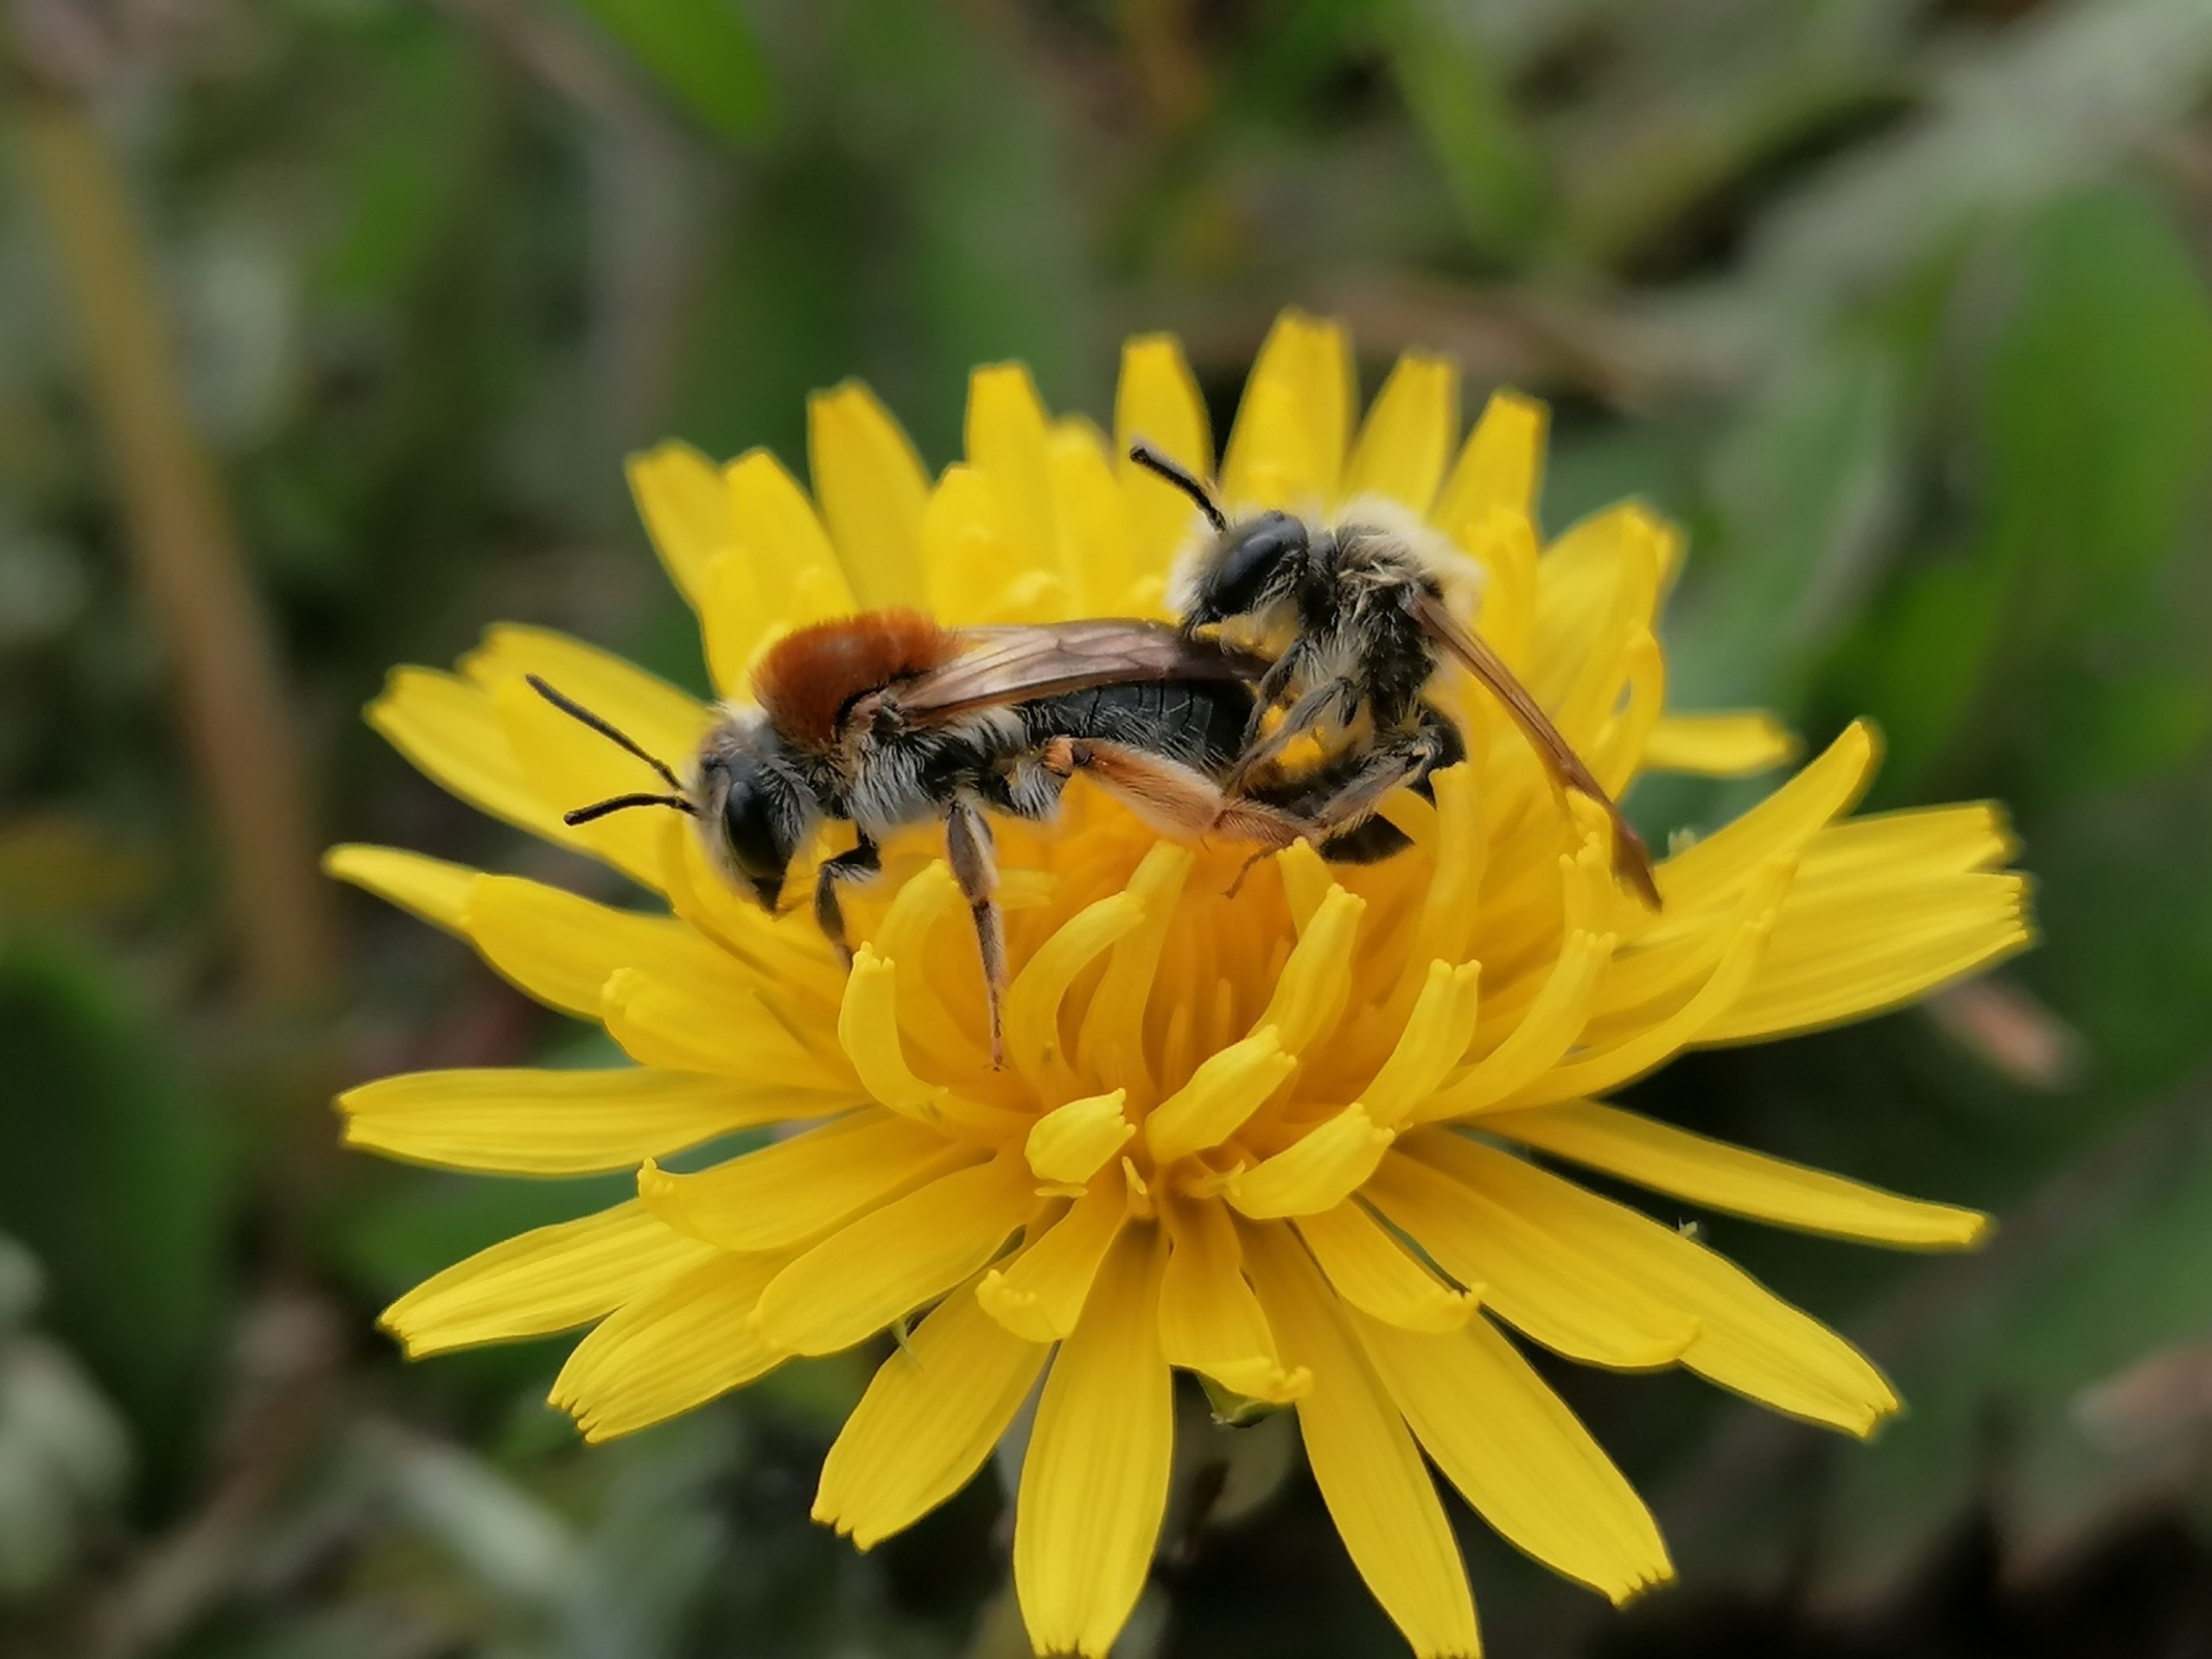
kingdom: Animalia
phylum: Arthropoda
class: Insecta
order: Hymenoptera
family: Andrenidae
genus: Andrena
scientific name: Andrena haemorrhoa
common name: Havejordbi
